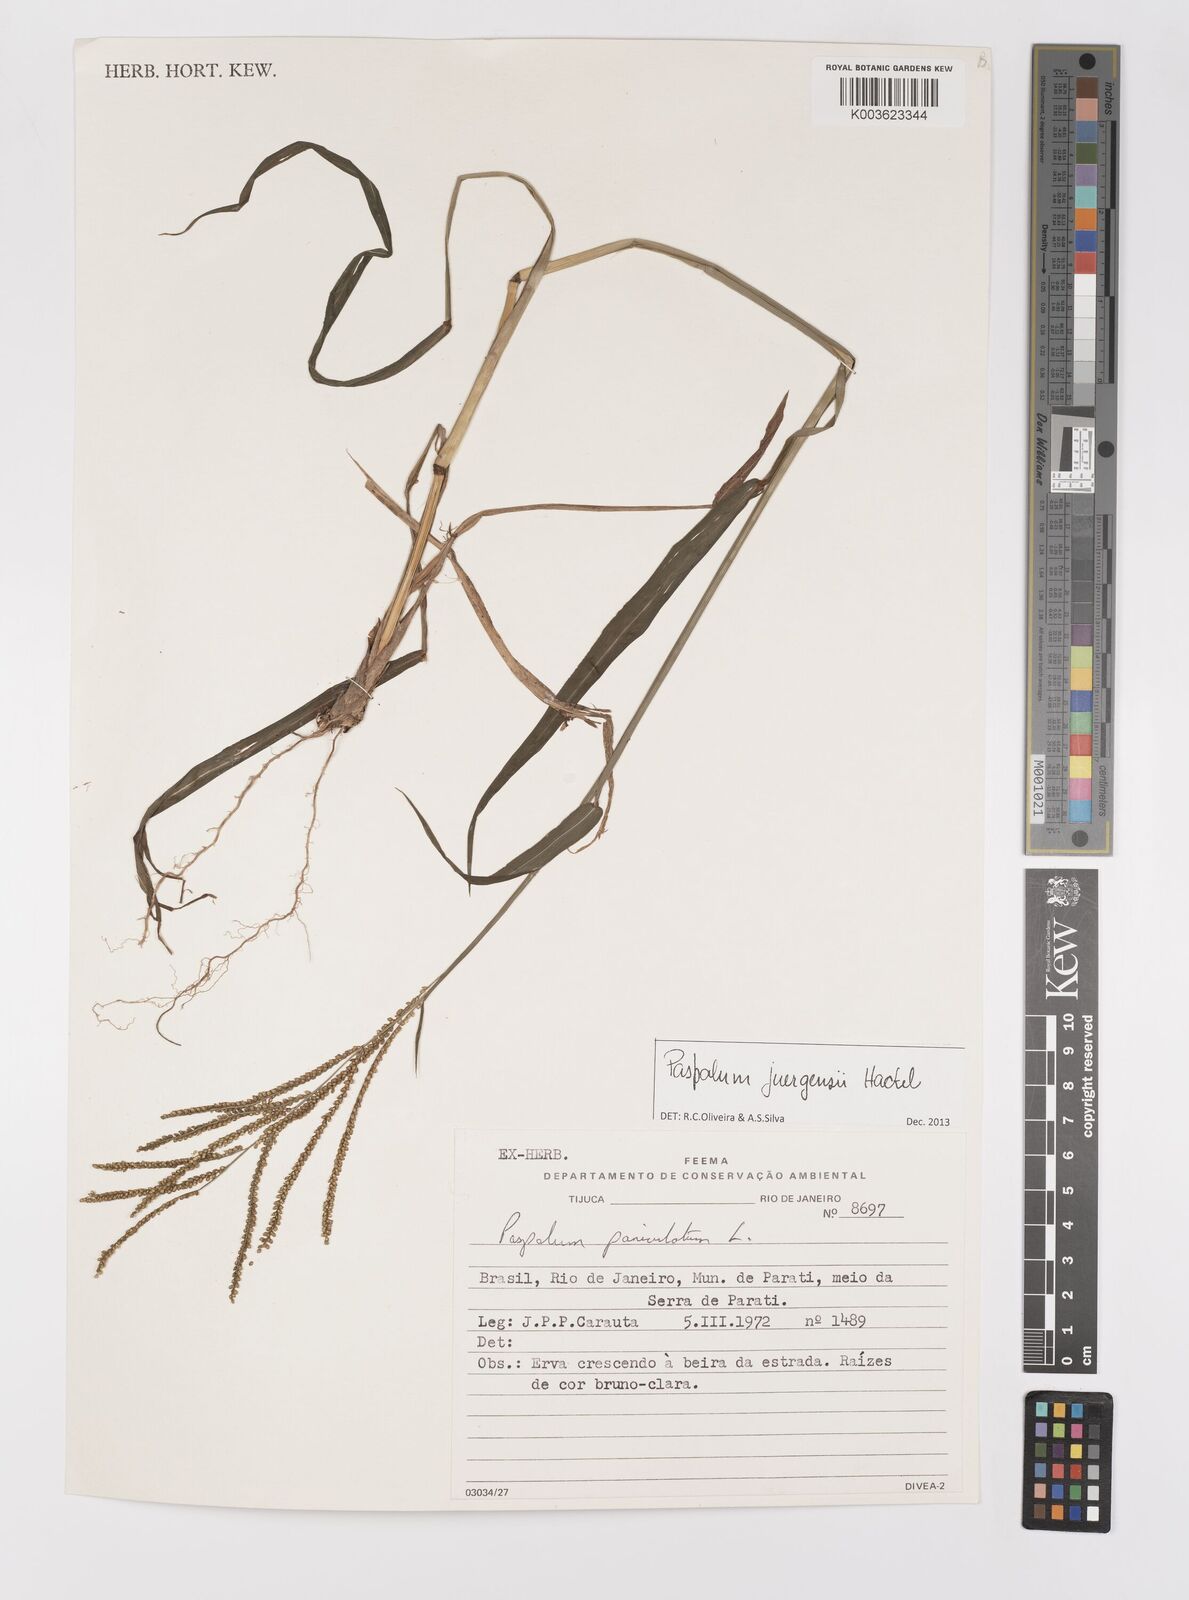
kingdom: Plantae
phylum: Tracheophyta
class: Liliopsida
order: Poales
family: Poaceae
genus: Paspalum
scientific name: Paspalum juergensii
